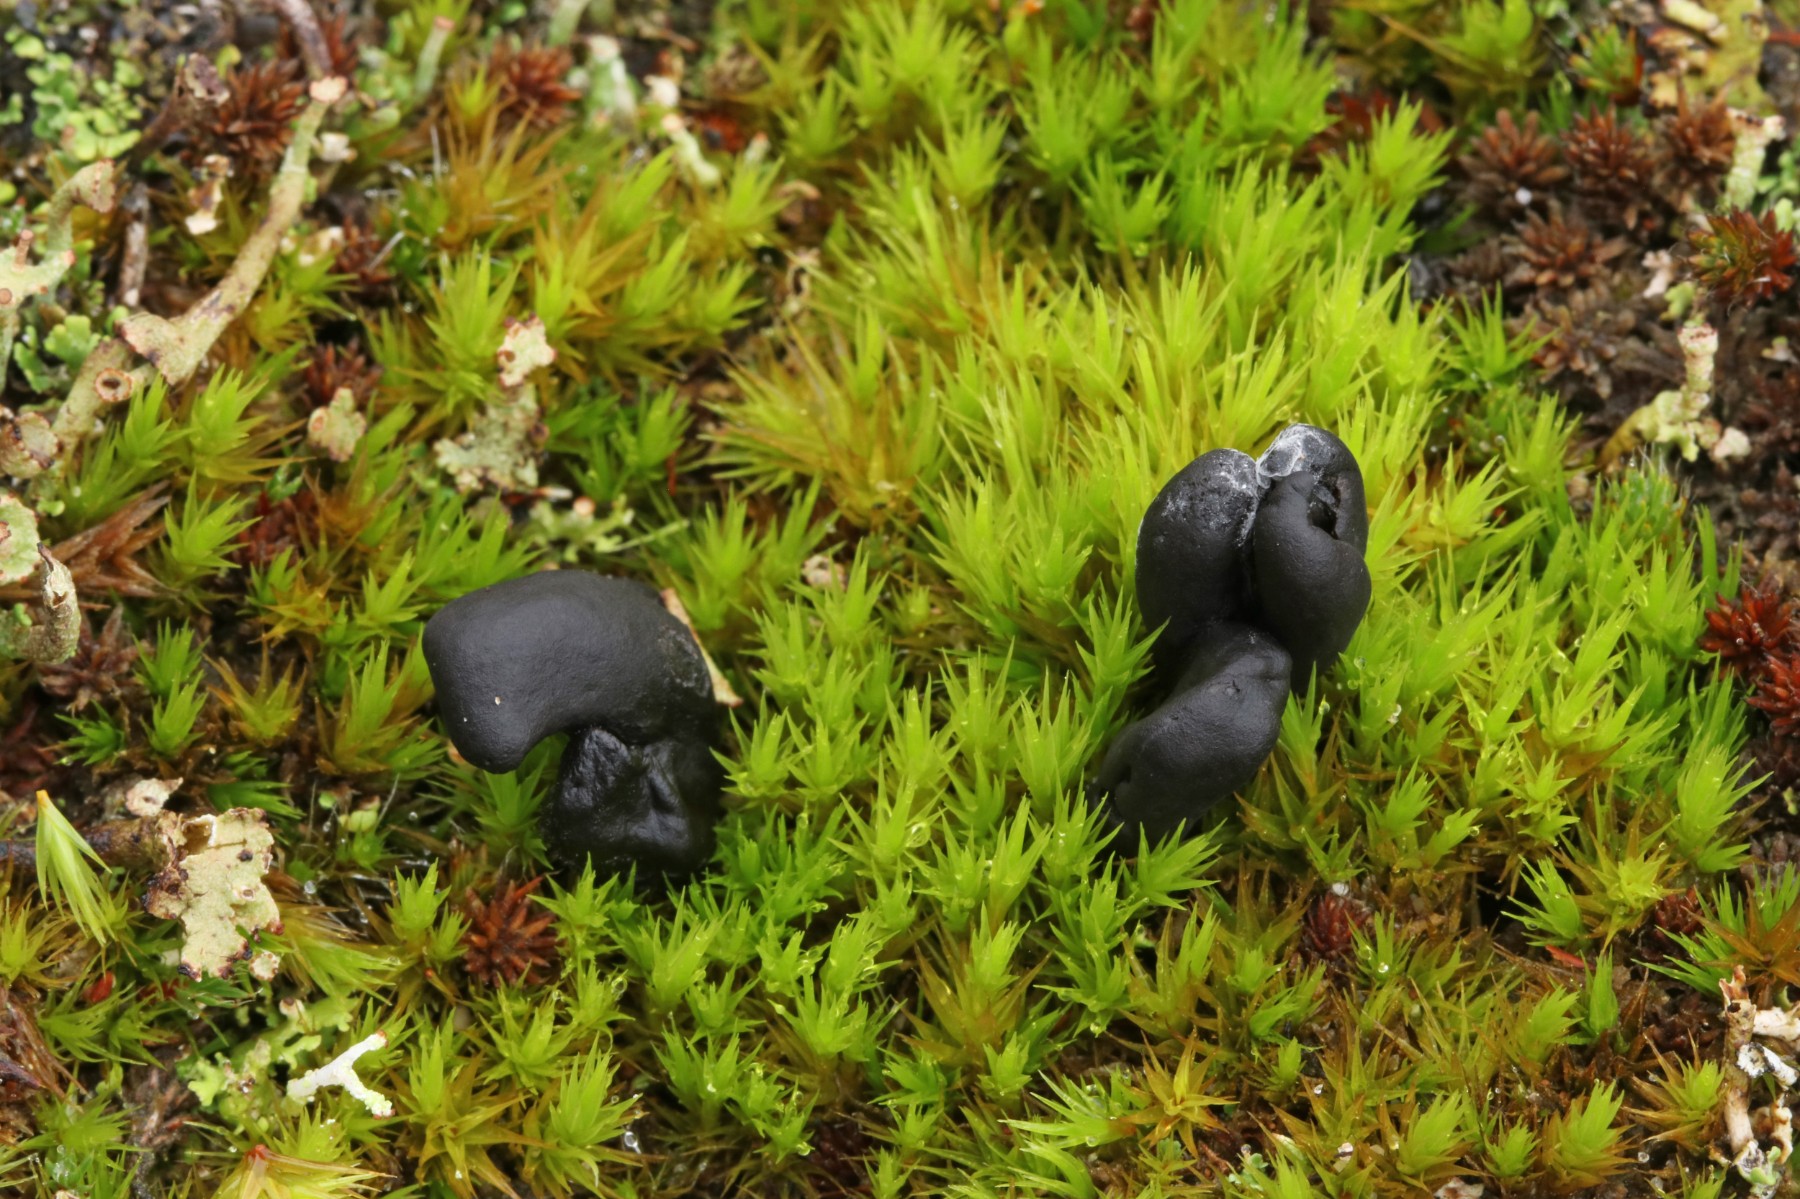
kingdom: Fungi
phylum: Ascomycota
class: Geoglossomycetes
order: Geoglossales
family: Geoglossaceae
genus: Sabuloglossum
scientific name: Sabuloglossum arenarium
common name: klit-jordtunge
